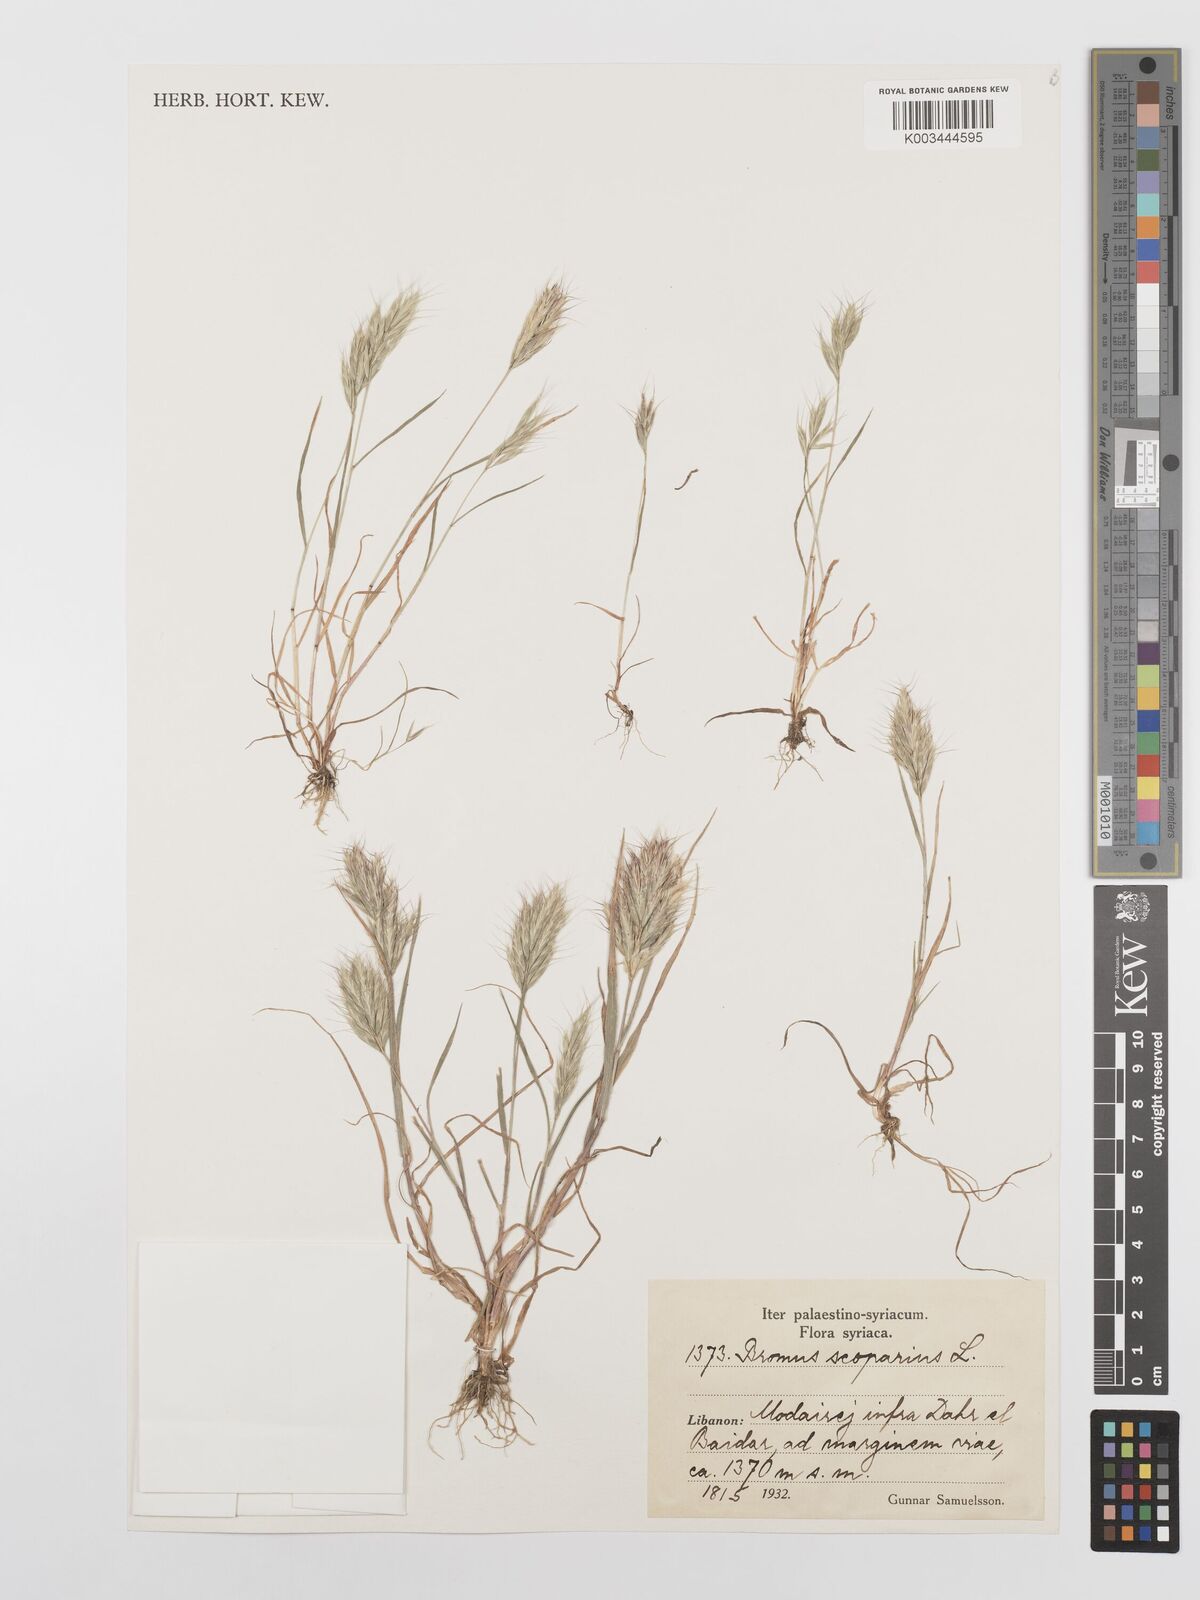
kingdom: Plantae
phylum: Tracheophyta
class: Liliopsida
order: Poales
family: Poaceae
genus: Bromus
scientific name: Bromus scoparius
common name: Broom brome
